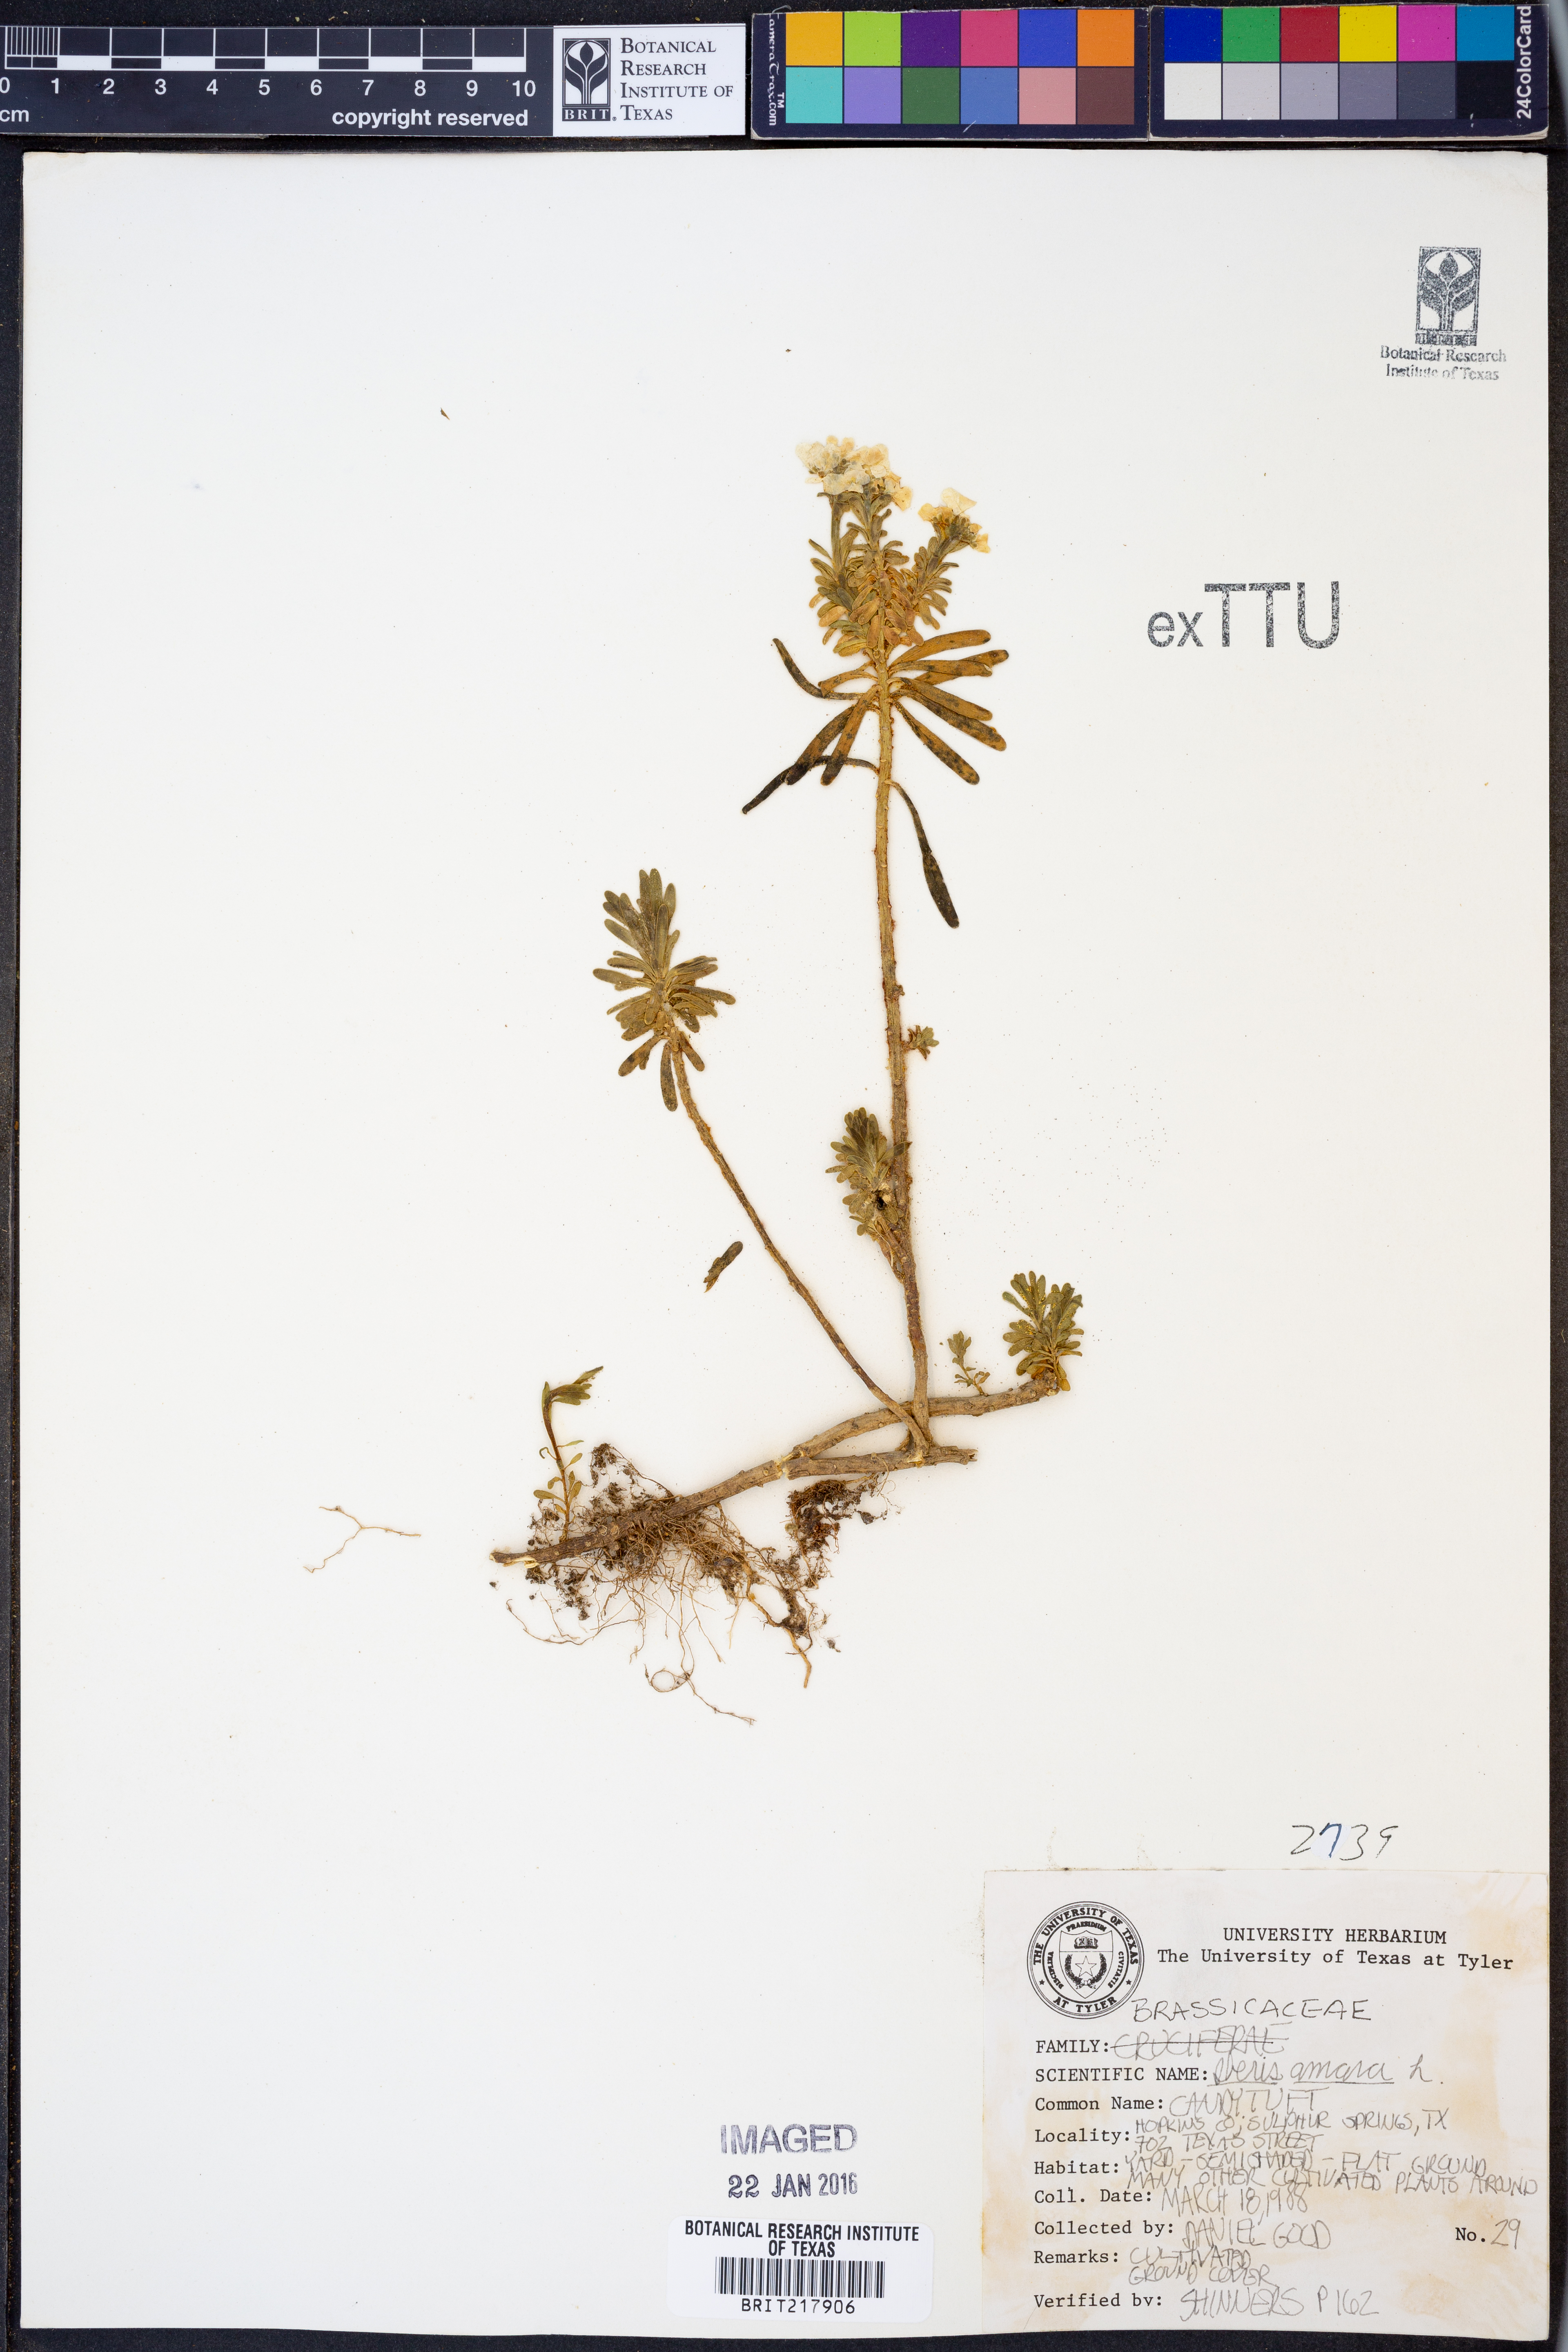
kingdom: Plantae
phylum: Tracheophyta
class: Magnoliopsida
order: Brassicales
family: Brassicaceae
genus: Lepidium
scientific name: Lepidium Iberis amara
